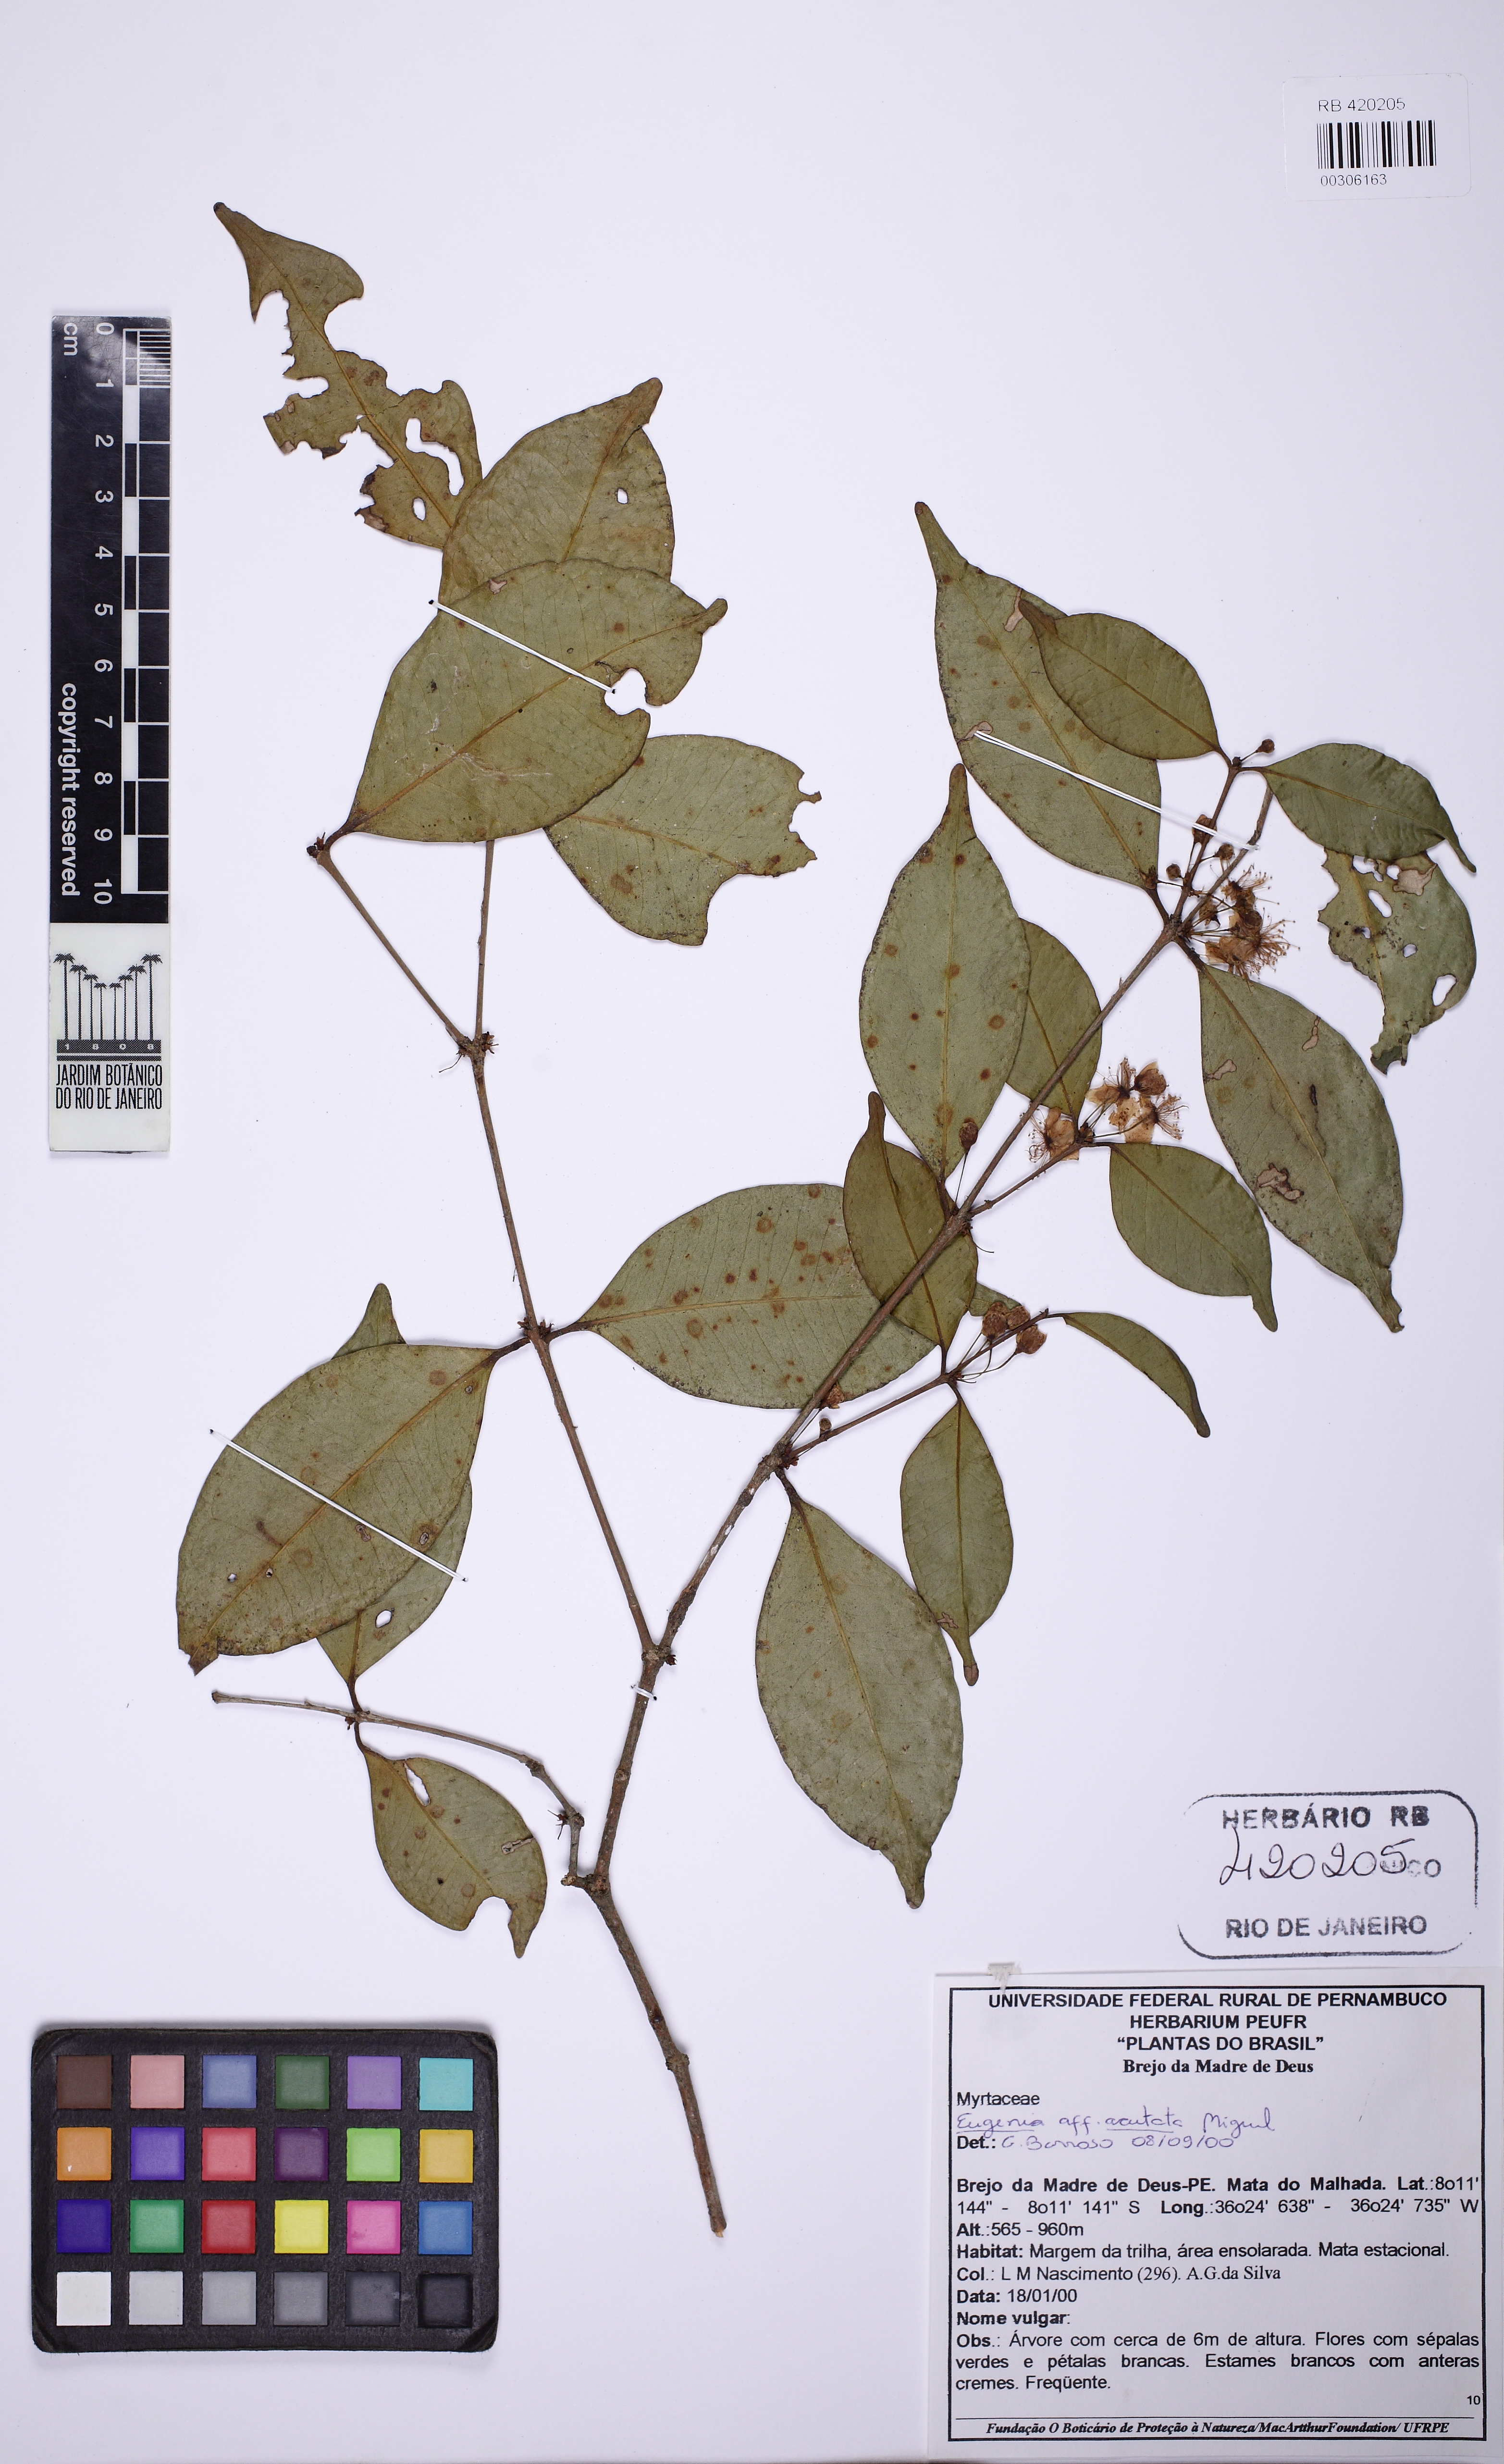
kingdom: Plantae
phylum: Tracheophyta
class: Magnoliopsida
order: Myrtales
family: Myrtaceae
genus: Eugenia
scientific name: Eugenia
